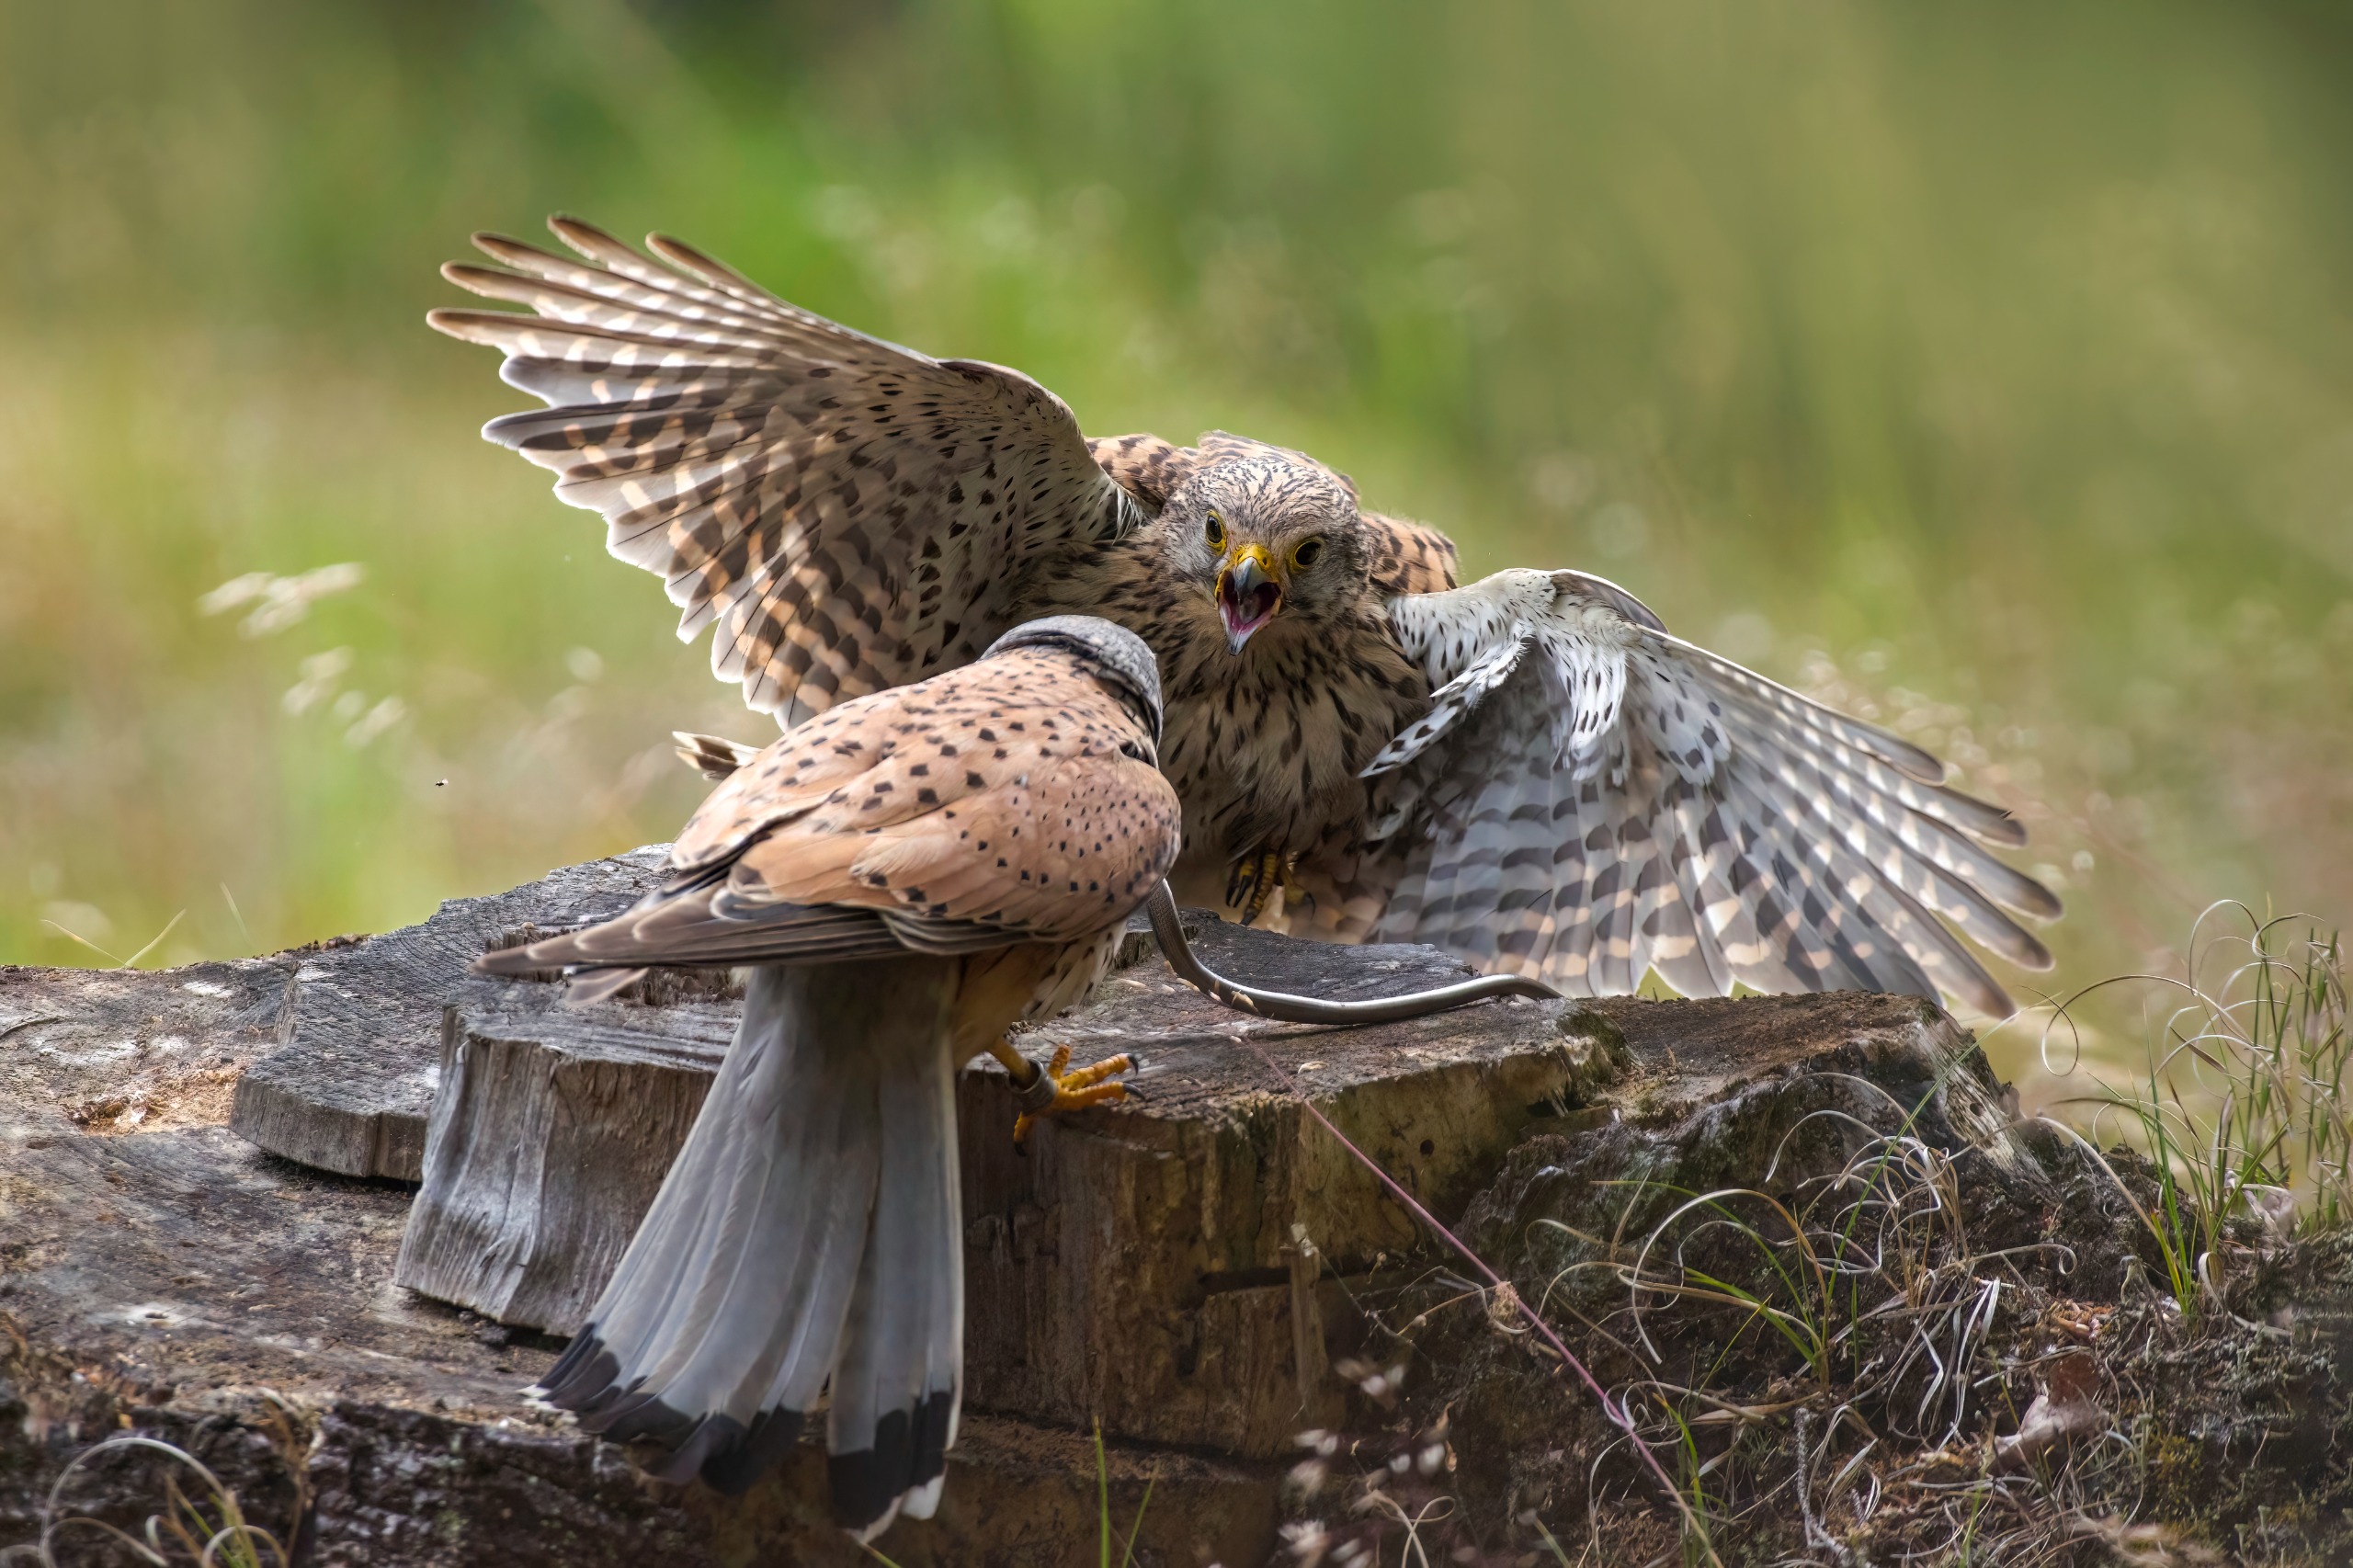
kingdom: Animalia
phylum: Chordata
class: Aves
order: Falconiformes
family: Falconidae
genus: Falco
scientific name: Falco tinnunculus
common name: Tårnfalk
